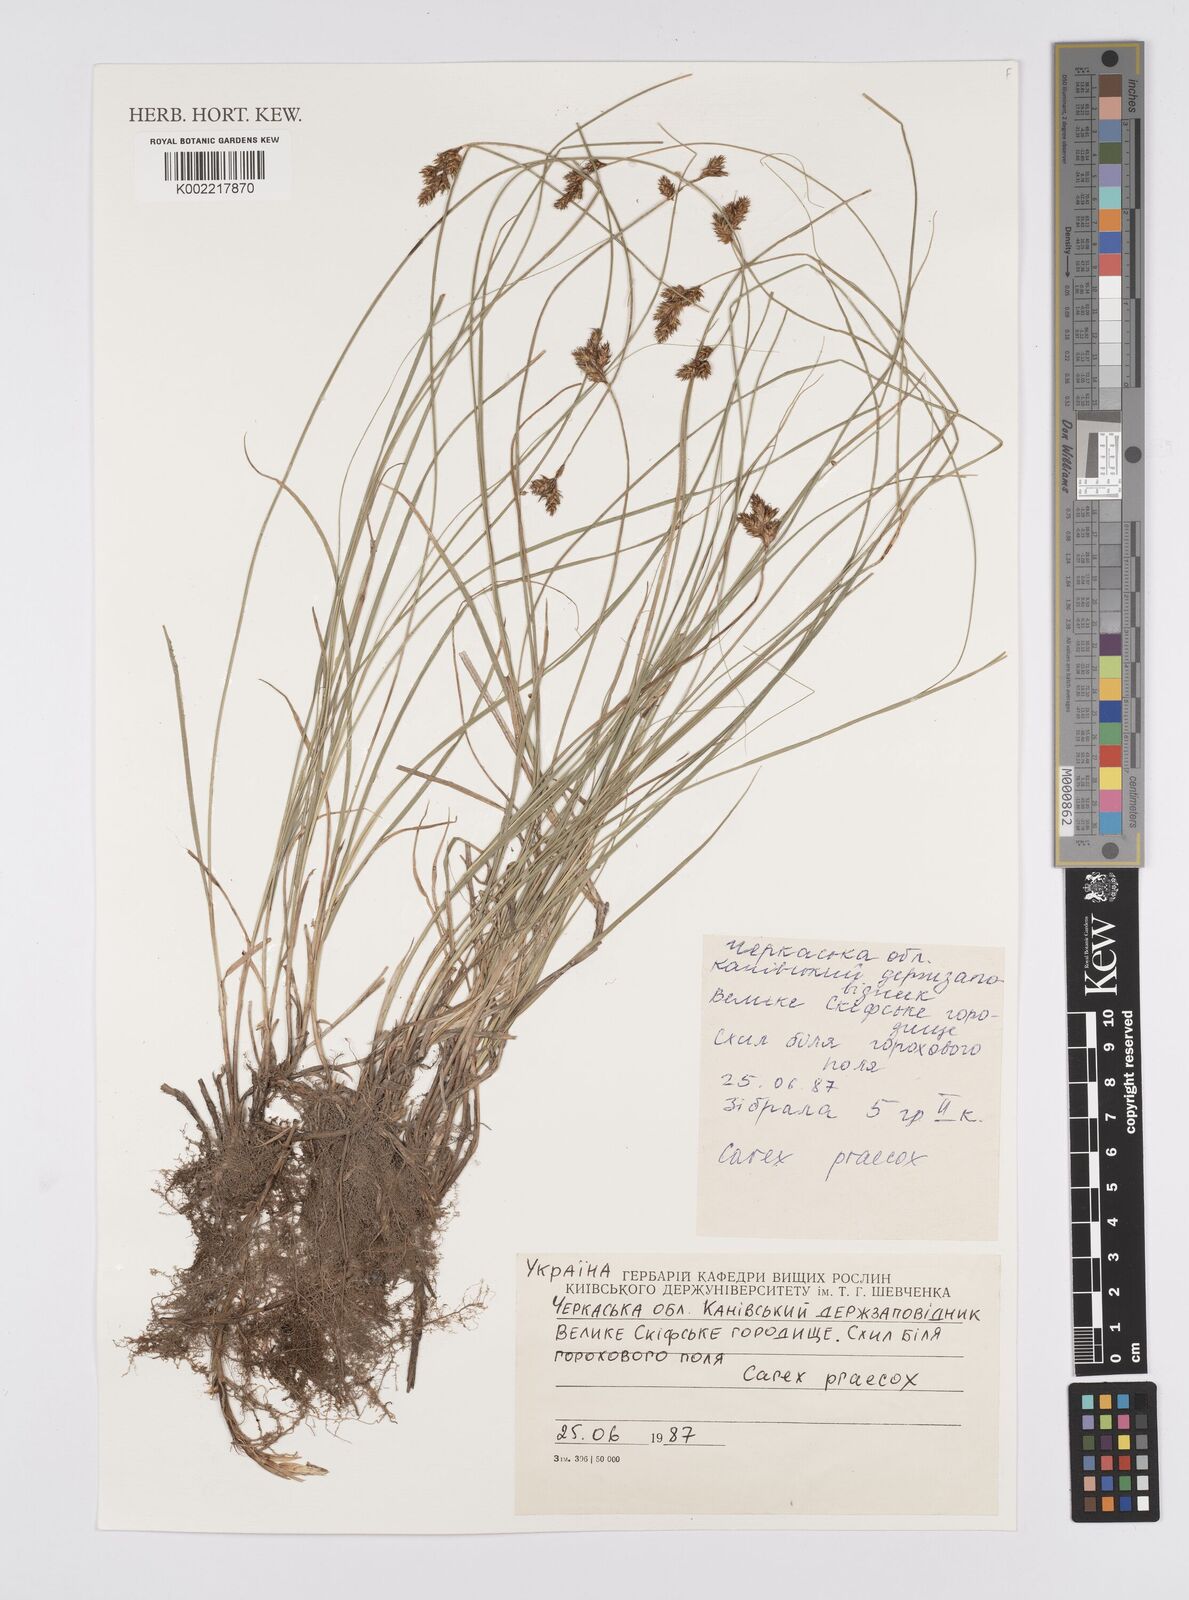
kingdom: Plantae
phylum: Tracheophyta
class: Liliopsida
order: Poales
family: Cyperaceae
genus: Carex
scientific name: Carex praecox
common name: Early sedge
